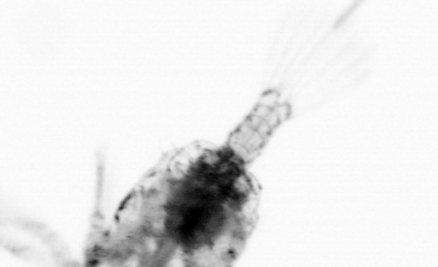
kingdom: Animalia
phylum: Arthropoda
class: Copepoda
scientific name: Copepoda
